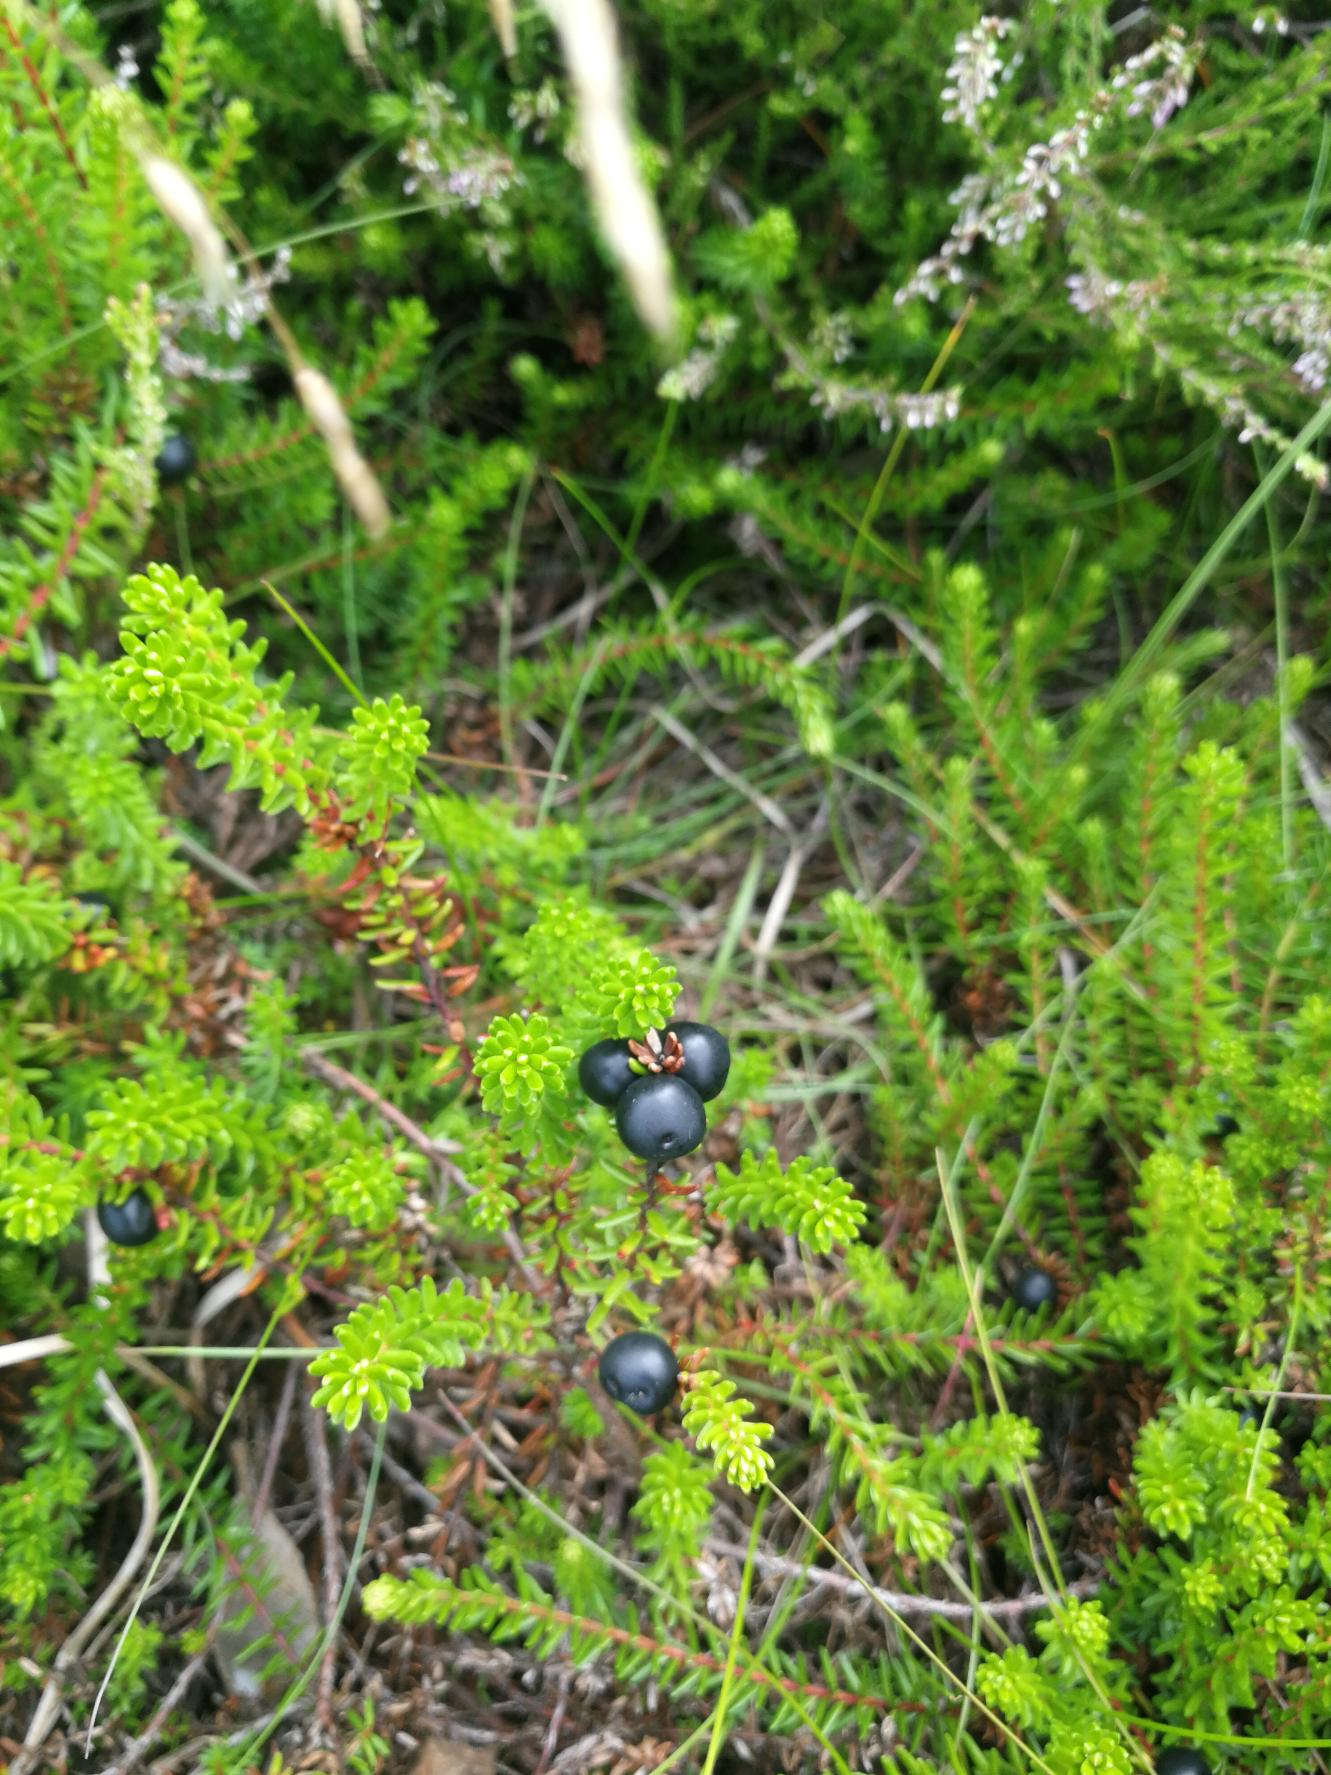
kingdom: Plantae
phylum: Tracheophyta
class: Magnoliopsida
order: Ericales
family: Ericaceae
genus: Empetrum
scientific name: Empetrum nigrum
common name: Revling
